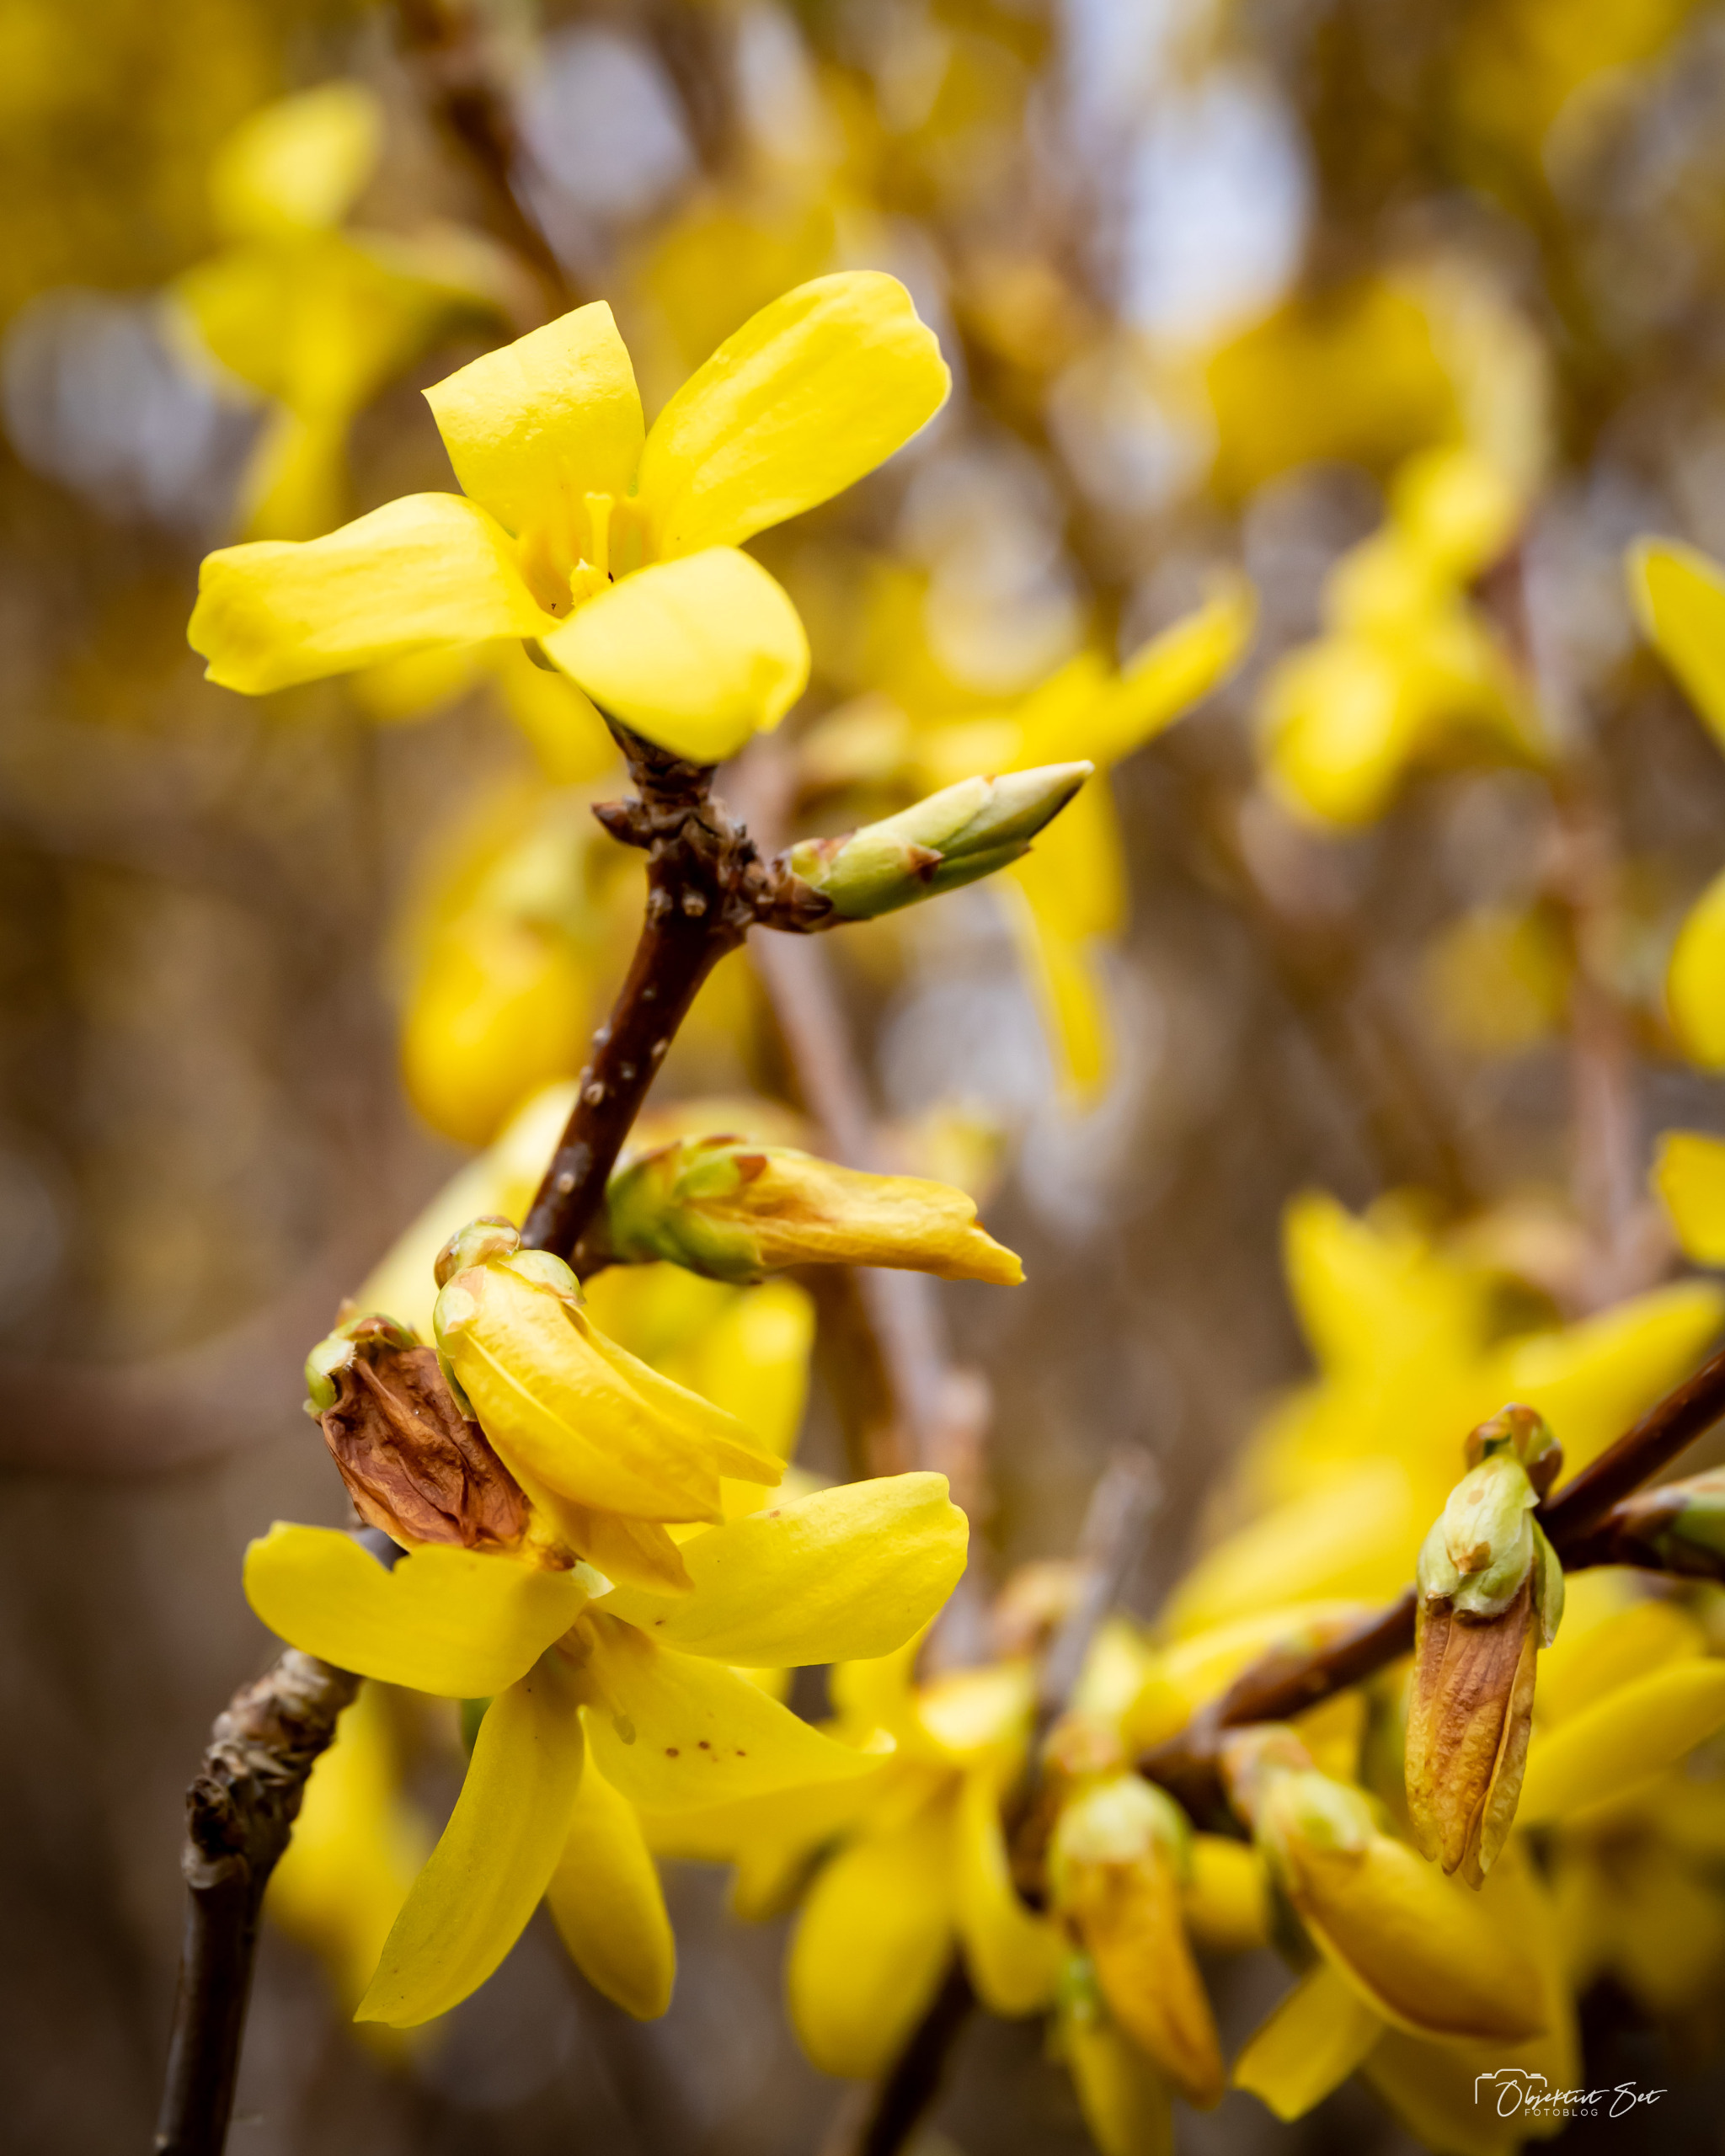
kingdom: Plantae
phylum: Tracheophyta
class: Magnoliopsida
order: Lamiales
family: Oleaceae
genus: Forsythia
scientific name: Forsythia intermedia
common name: Have-forsythia
